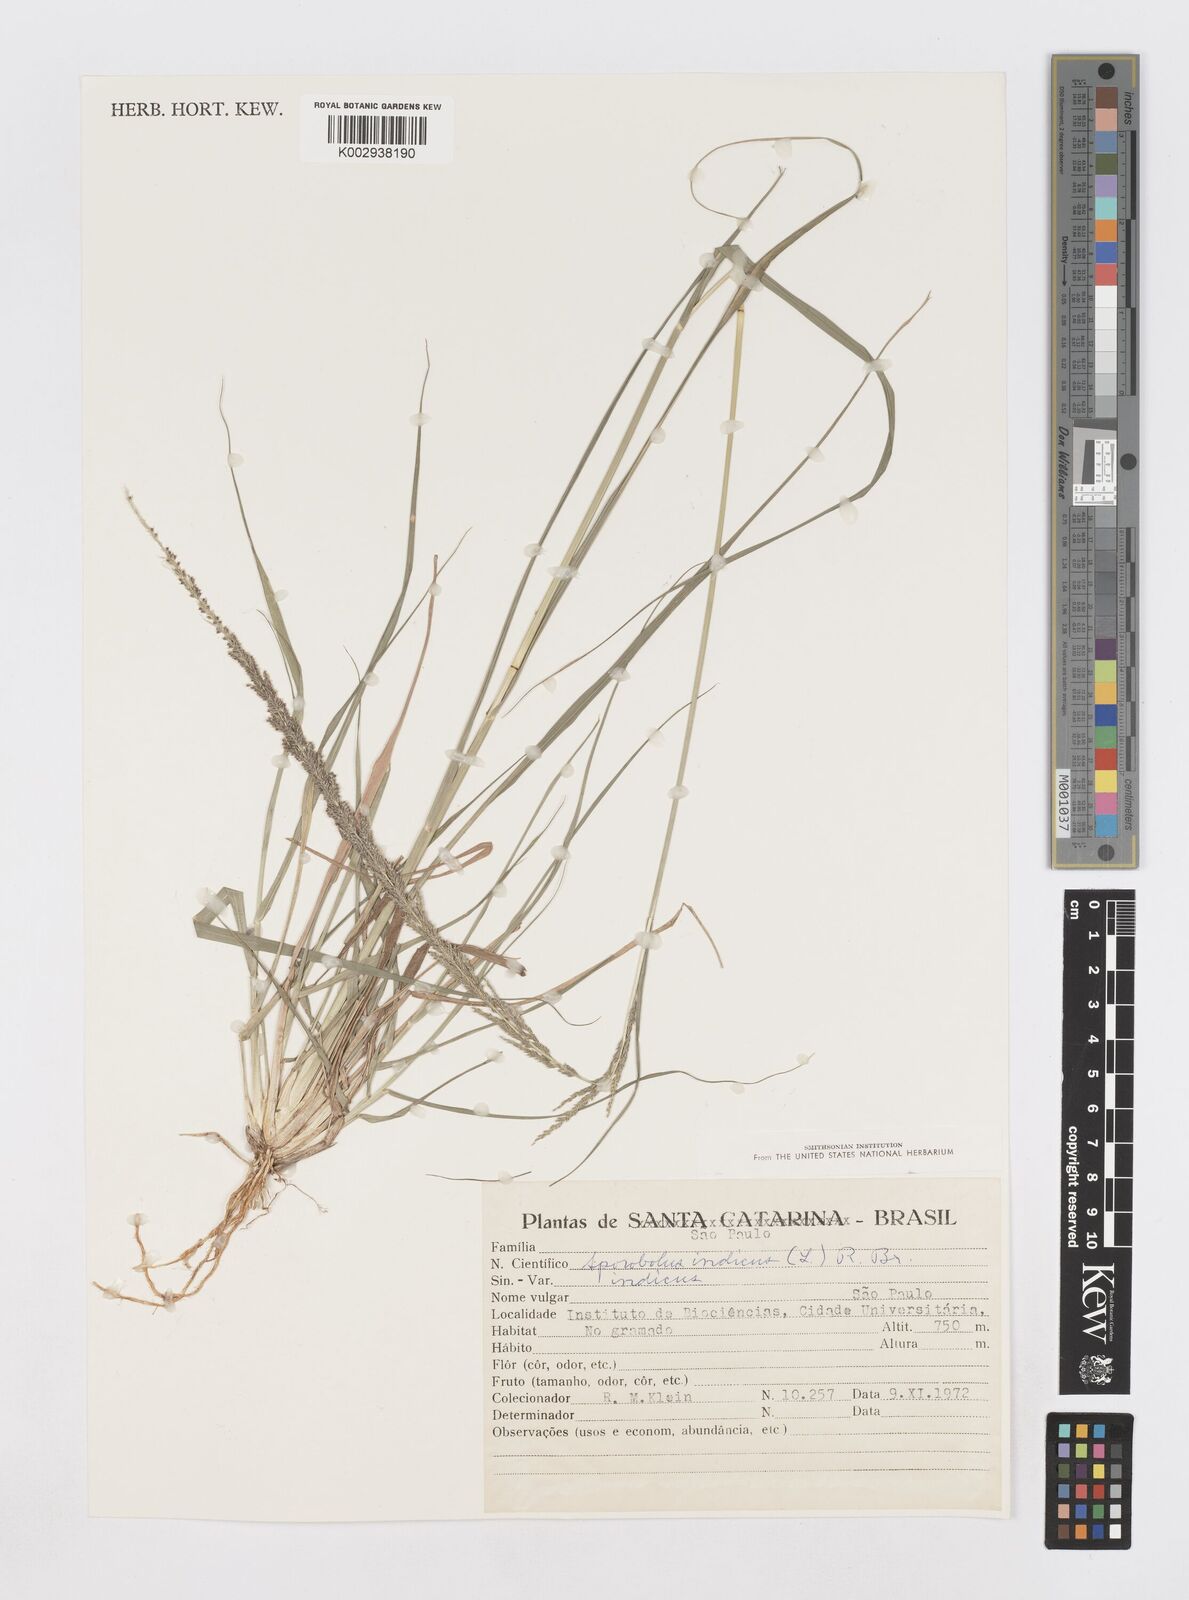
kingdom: Plantae
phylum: Tracheophyta
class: Liliopsida
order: Poales
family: Poaceae
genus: Sporobolus
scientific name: Sporobolus indicus
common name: Smut grass
